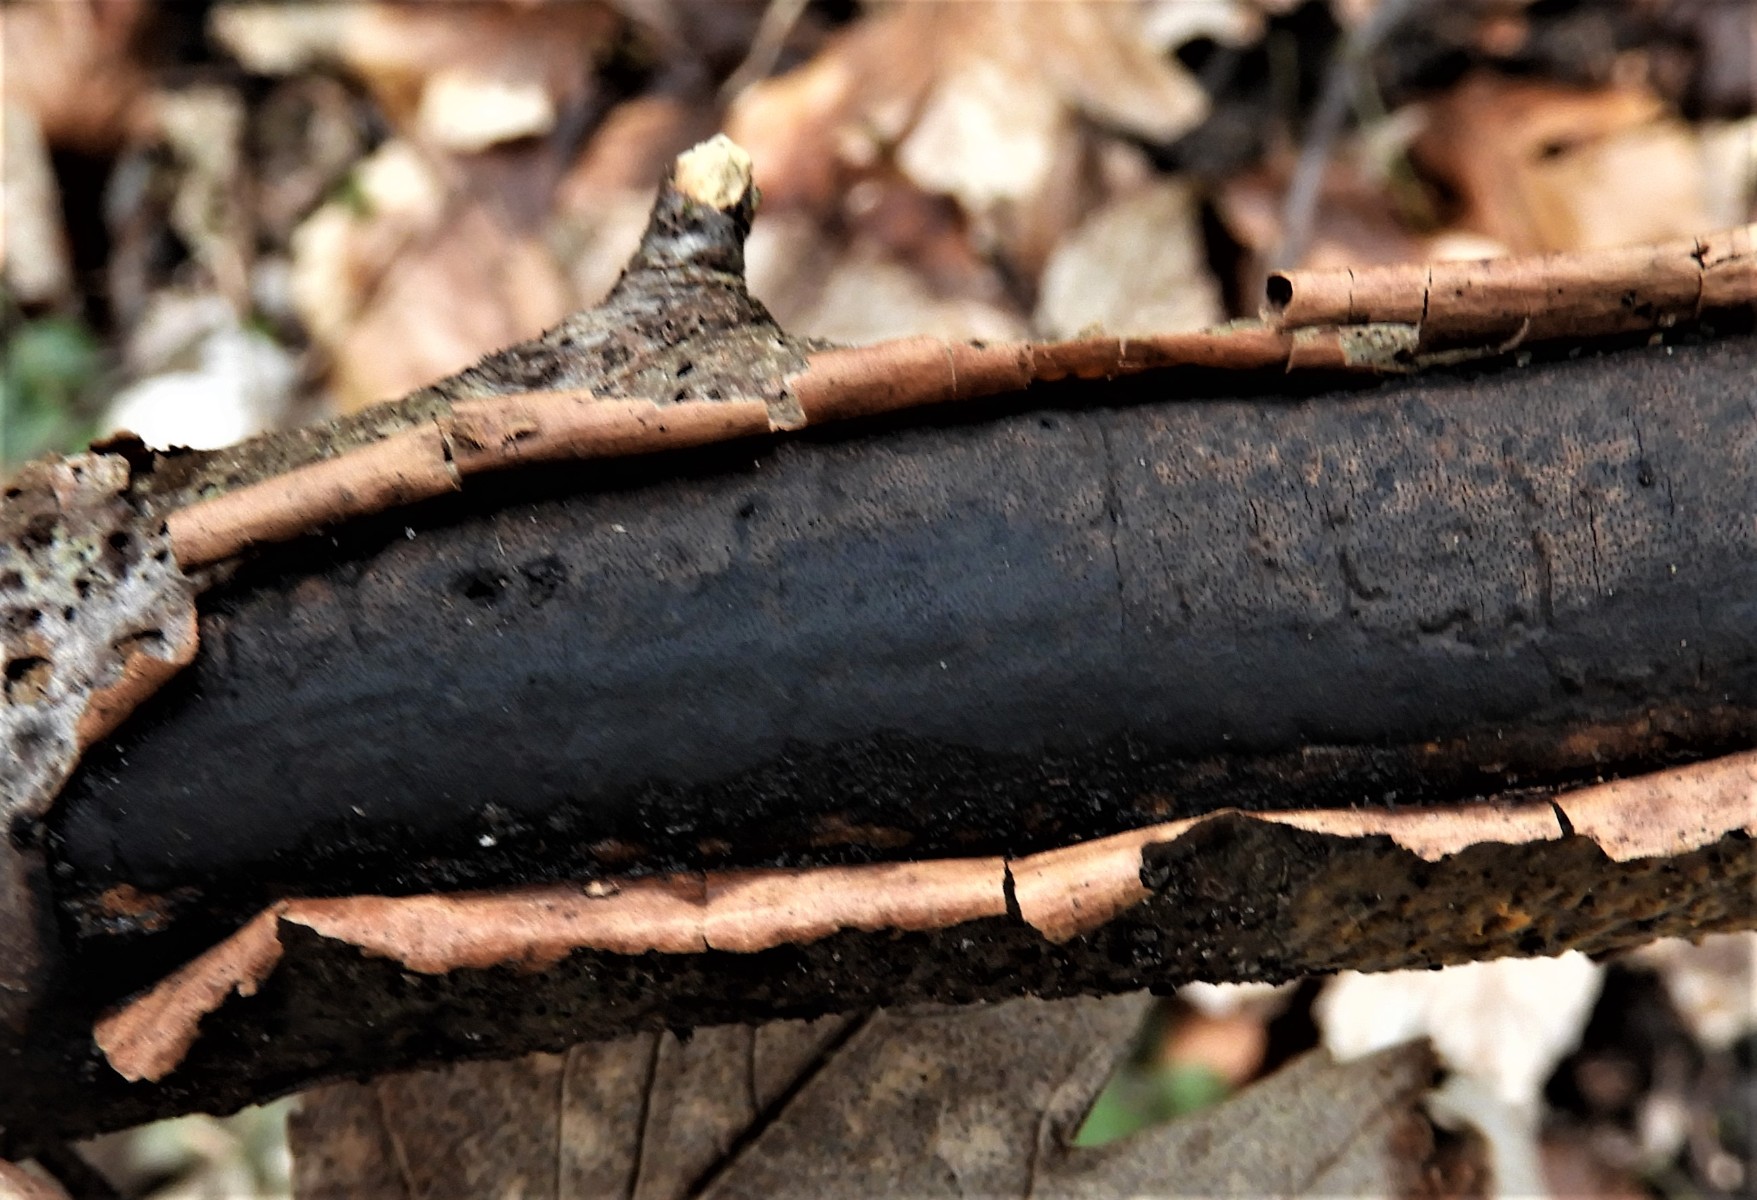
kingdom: Fungi
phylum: Ascomycota
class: Sordariomycetes
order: Xylariales
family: Diatrypaceae
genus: Diatrype
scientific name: Diatrype decorticata
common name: barksprænger-kulskorpe
